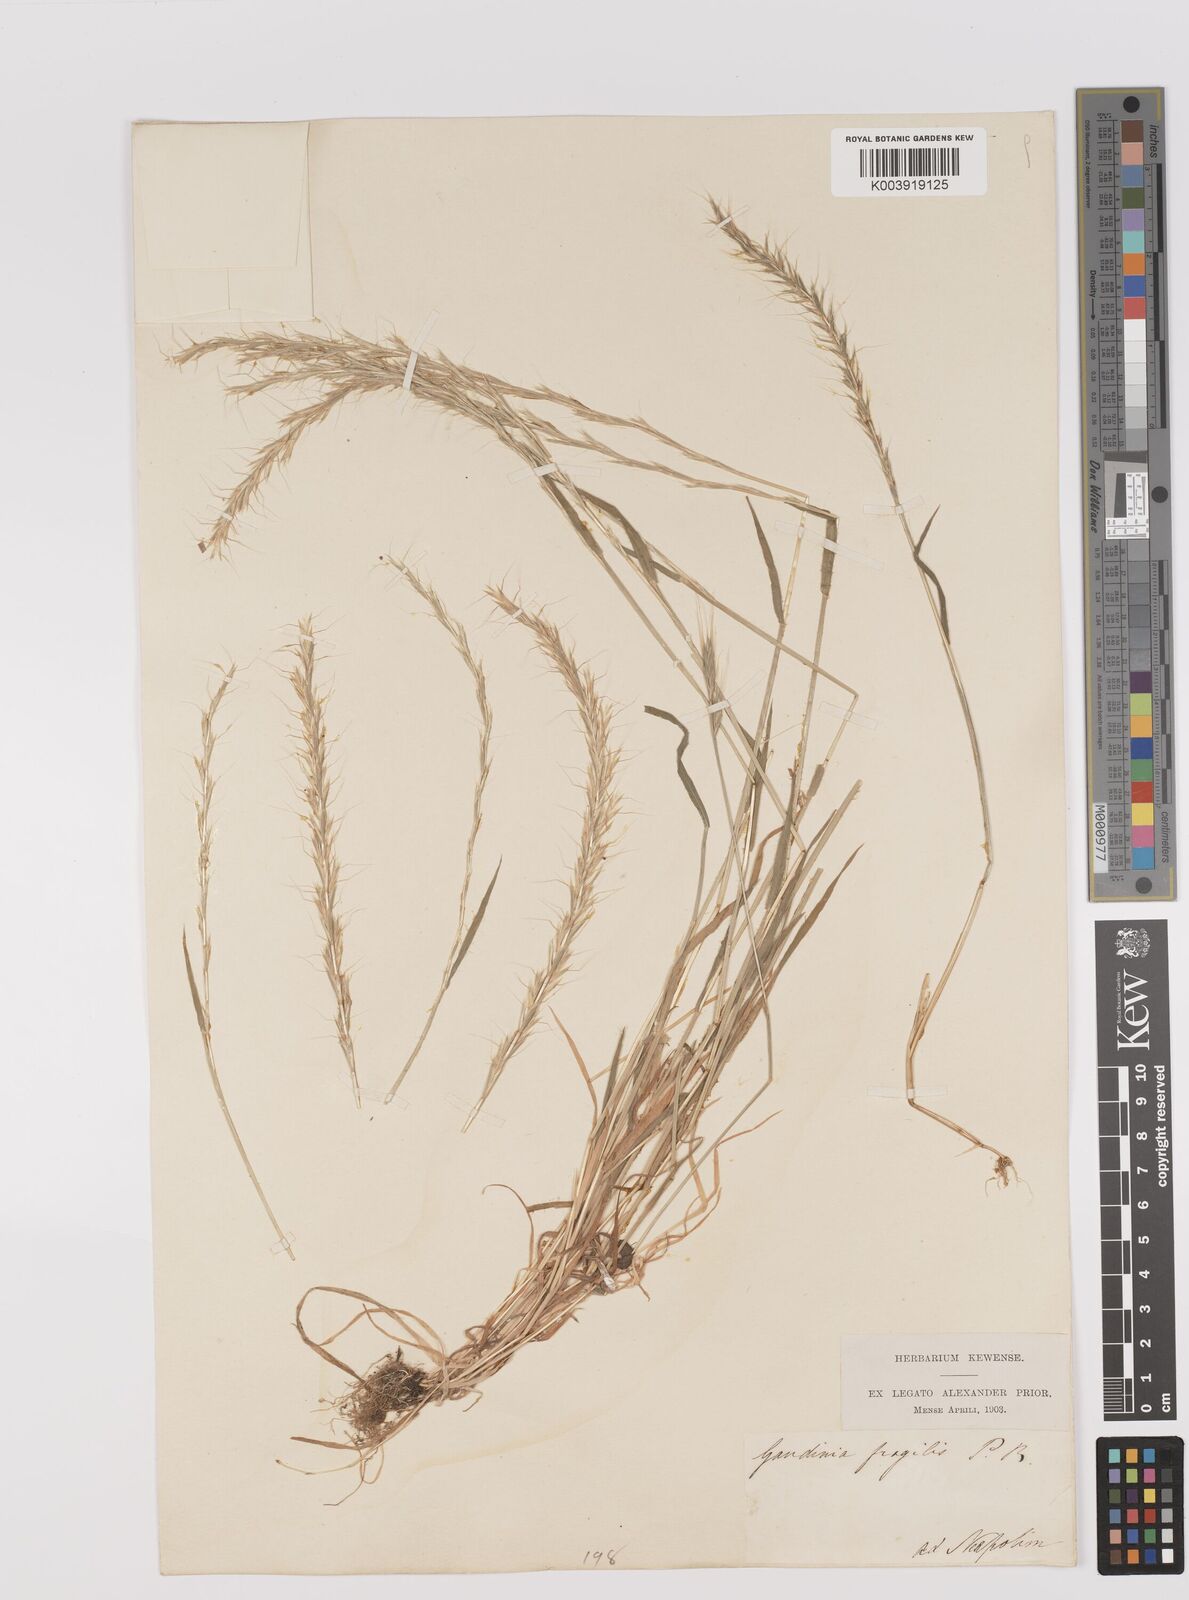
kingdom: Plantae
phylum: Tracheophyta
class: Liliopsida
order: Poales
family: Poaceae
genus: Gaudinia
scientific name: Gaudinia fragilis
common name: French oat-grass
